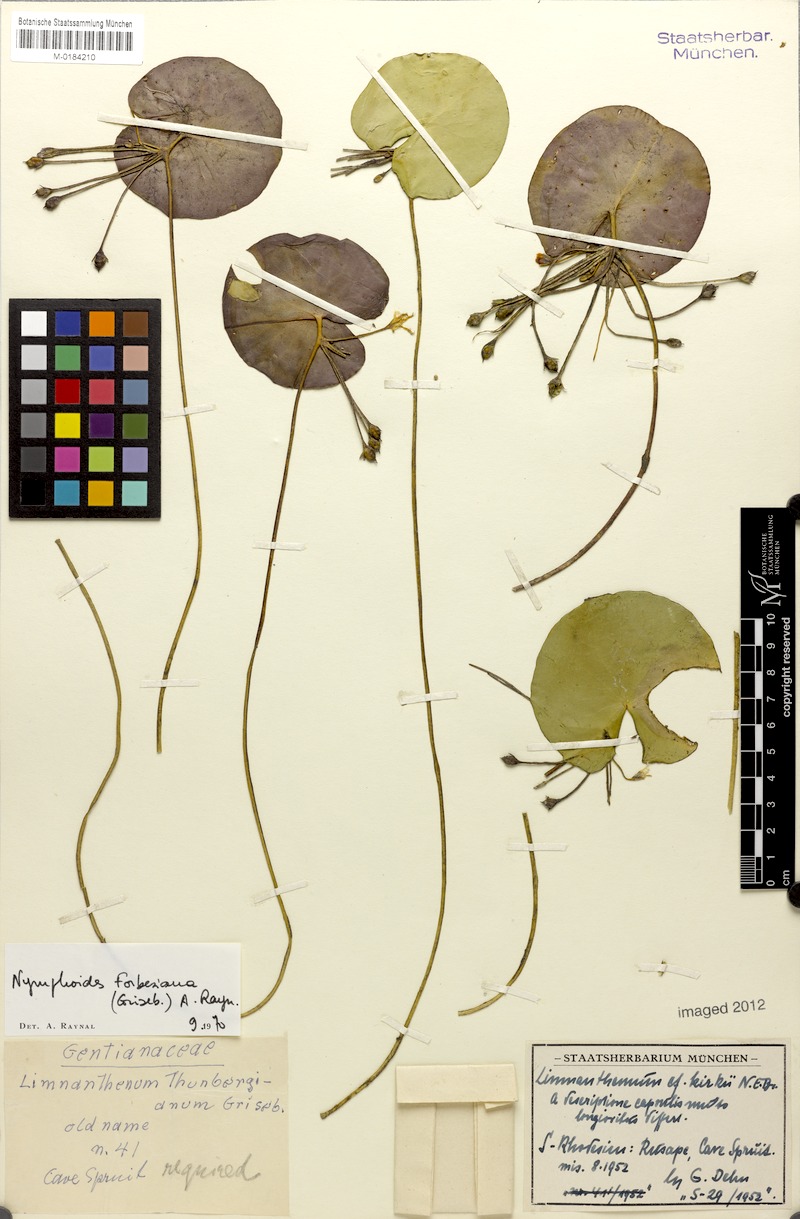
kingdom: Plantae
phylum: Tracheophyta
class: Magnoliopsida
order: Asterales
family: Menyanthaceae
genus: Nymphoides
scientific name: Nymphoides forbesiana
